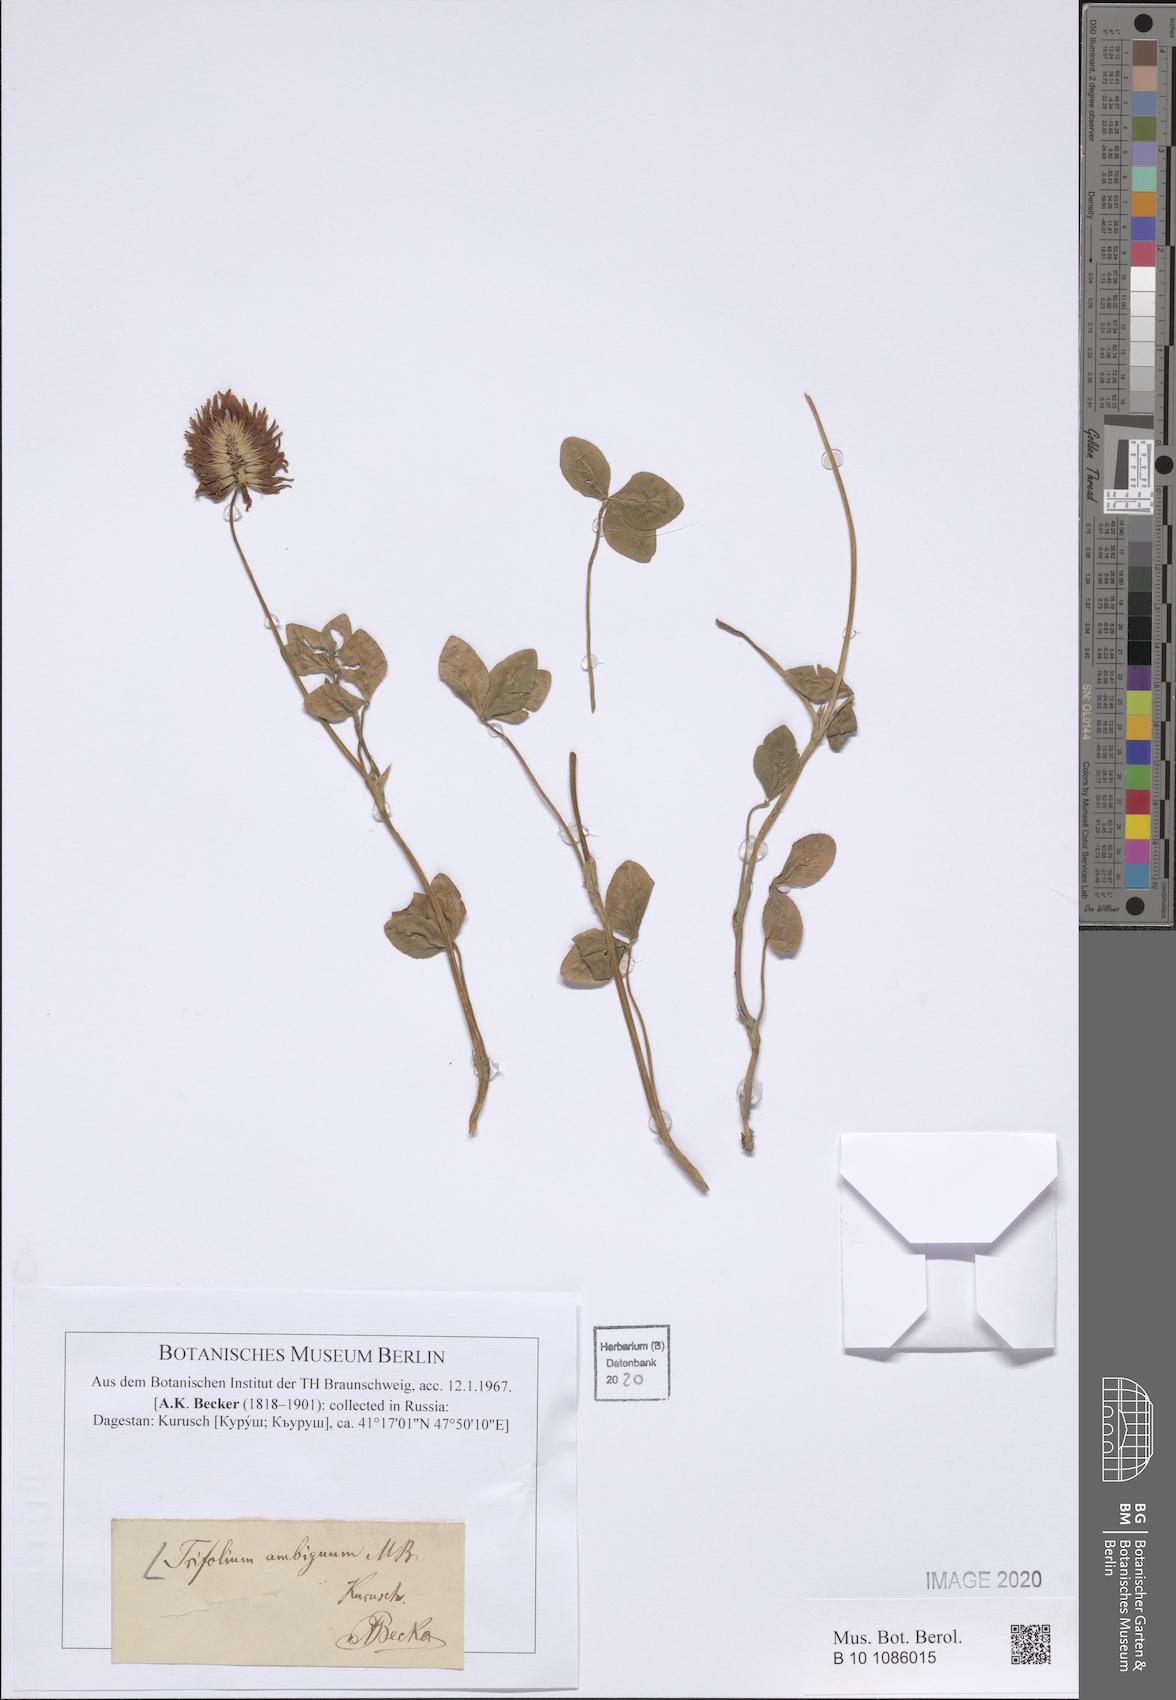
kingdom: Plantae
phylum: Tracheophyta
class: Magnoliopsida
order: Fabales
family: Fabaceae
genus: Trifolium
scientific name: Trifolium ambiguum
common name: Kura clover
